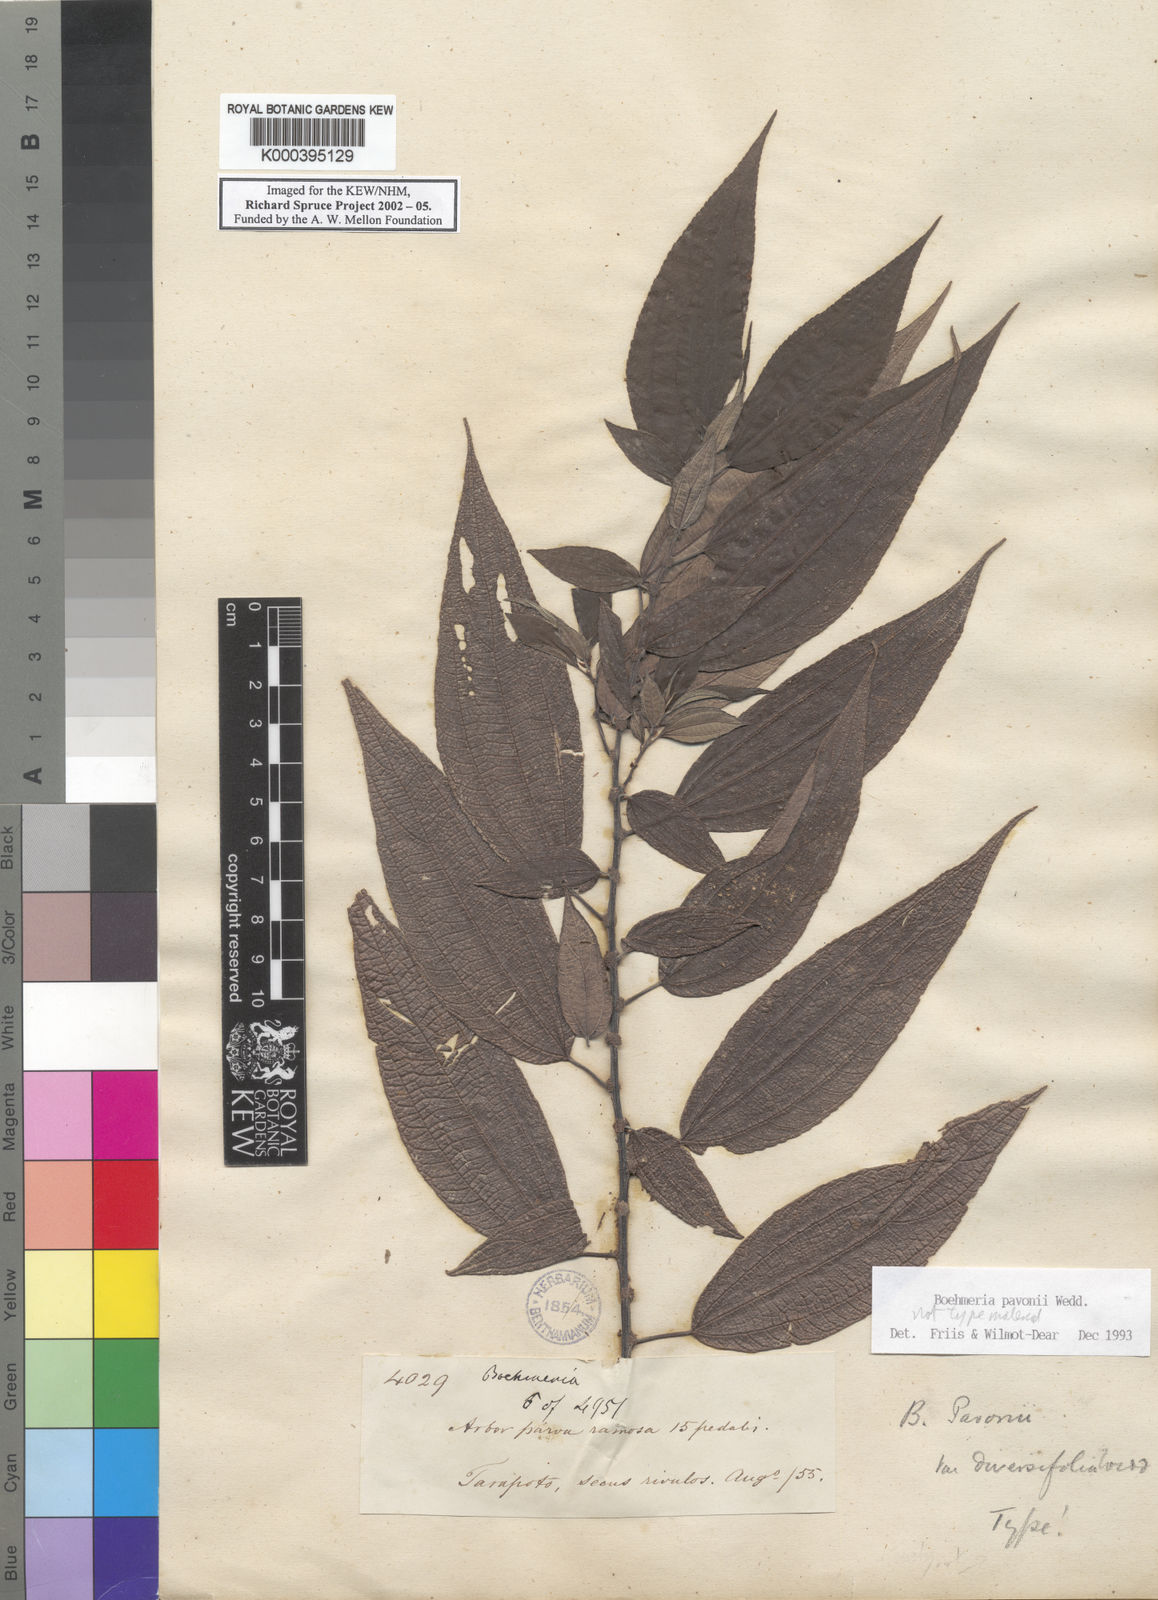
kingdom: Plantae
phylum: Tracheophyta
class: Magnoliopsida
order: Rosales
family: Urticaceae
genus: Boehmeria
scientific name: Boehmeria pavonii
